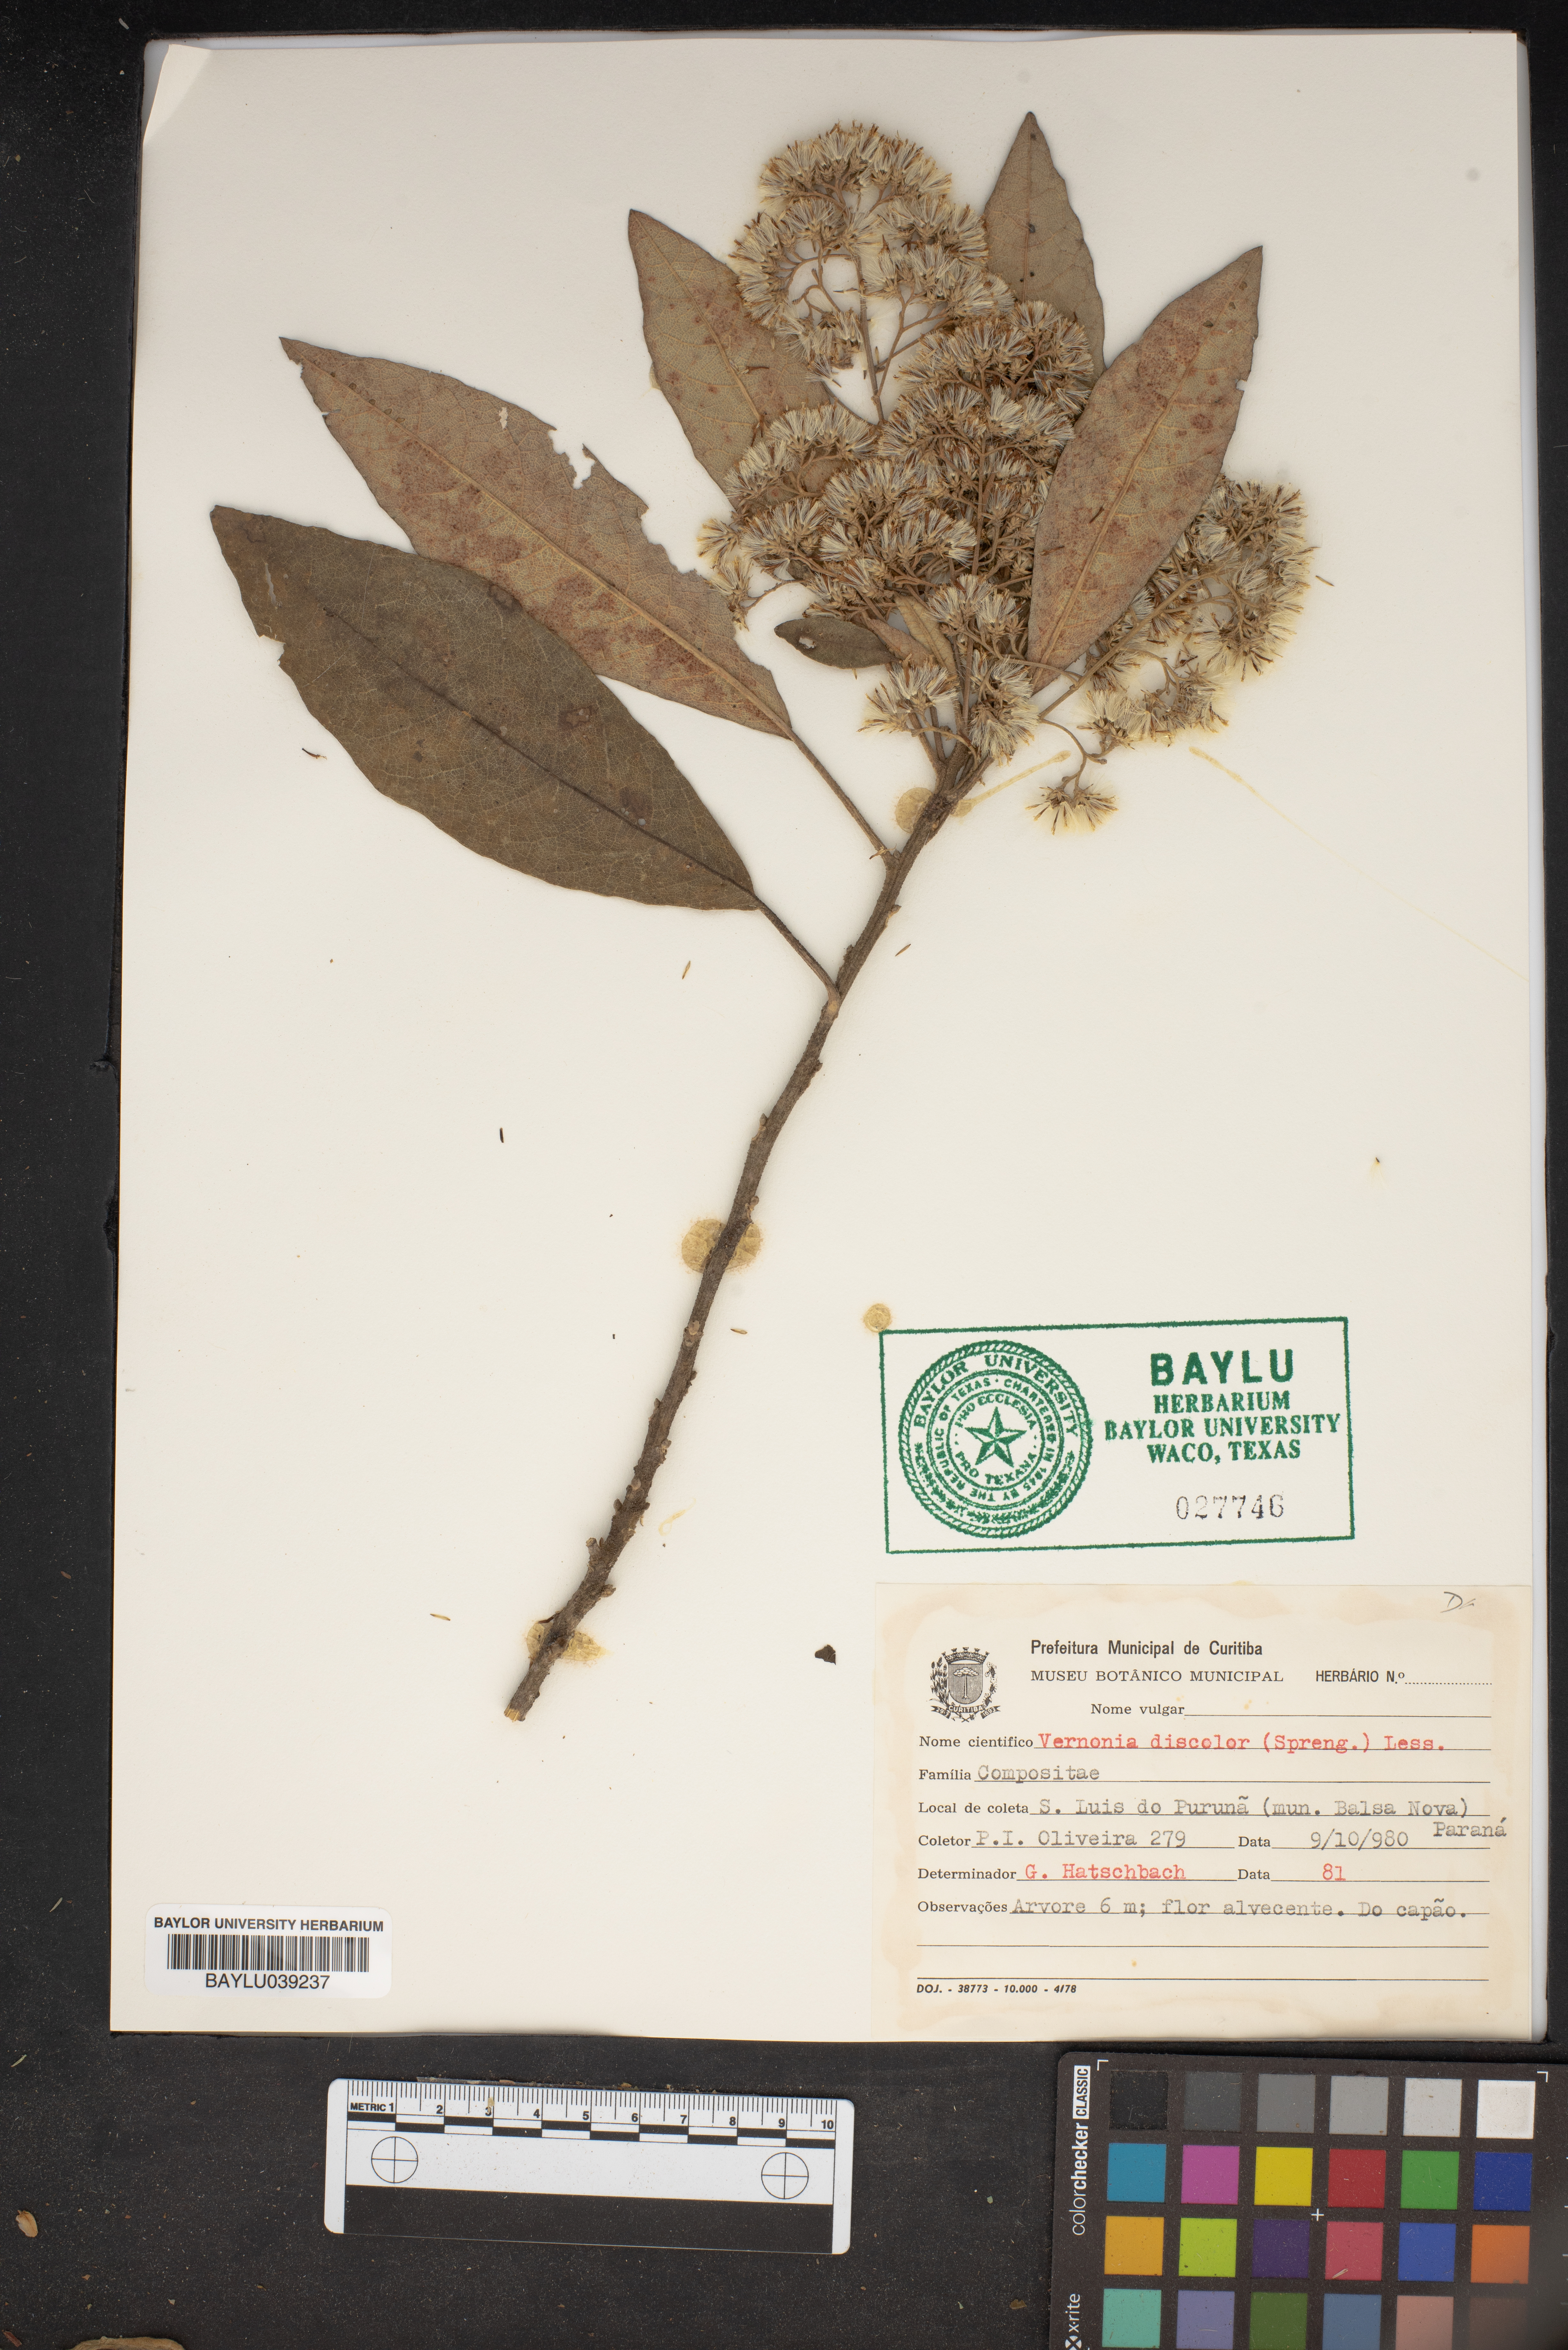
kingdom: Plantae
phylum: Tracheophyta
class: Magnoliopsida
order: Asterales
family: Asteraceae
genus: Vernonanthura
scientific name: Vernonanthura discolor
